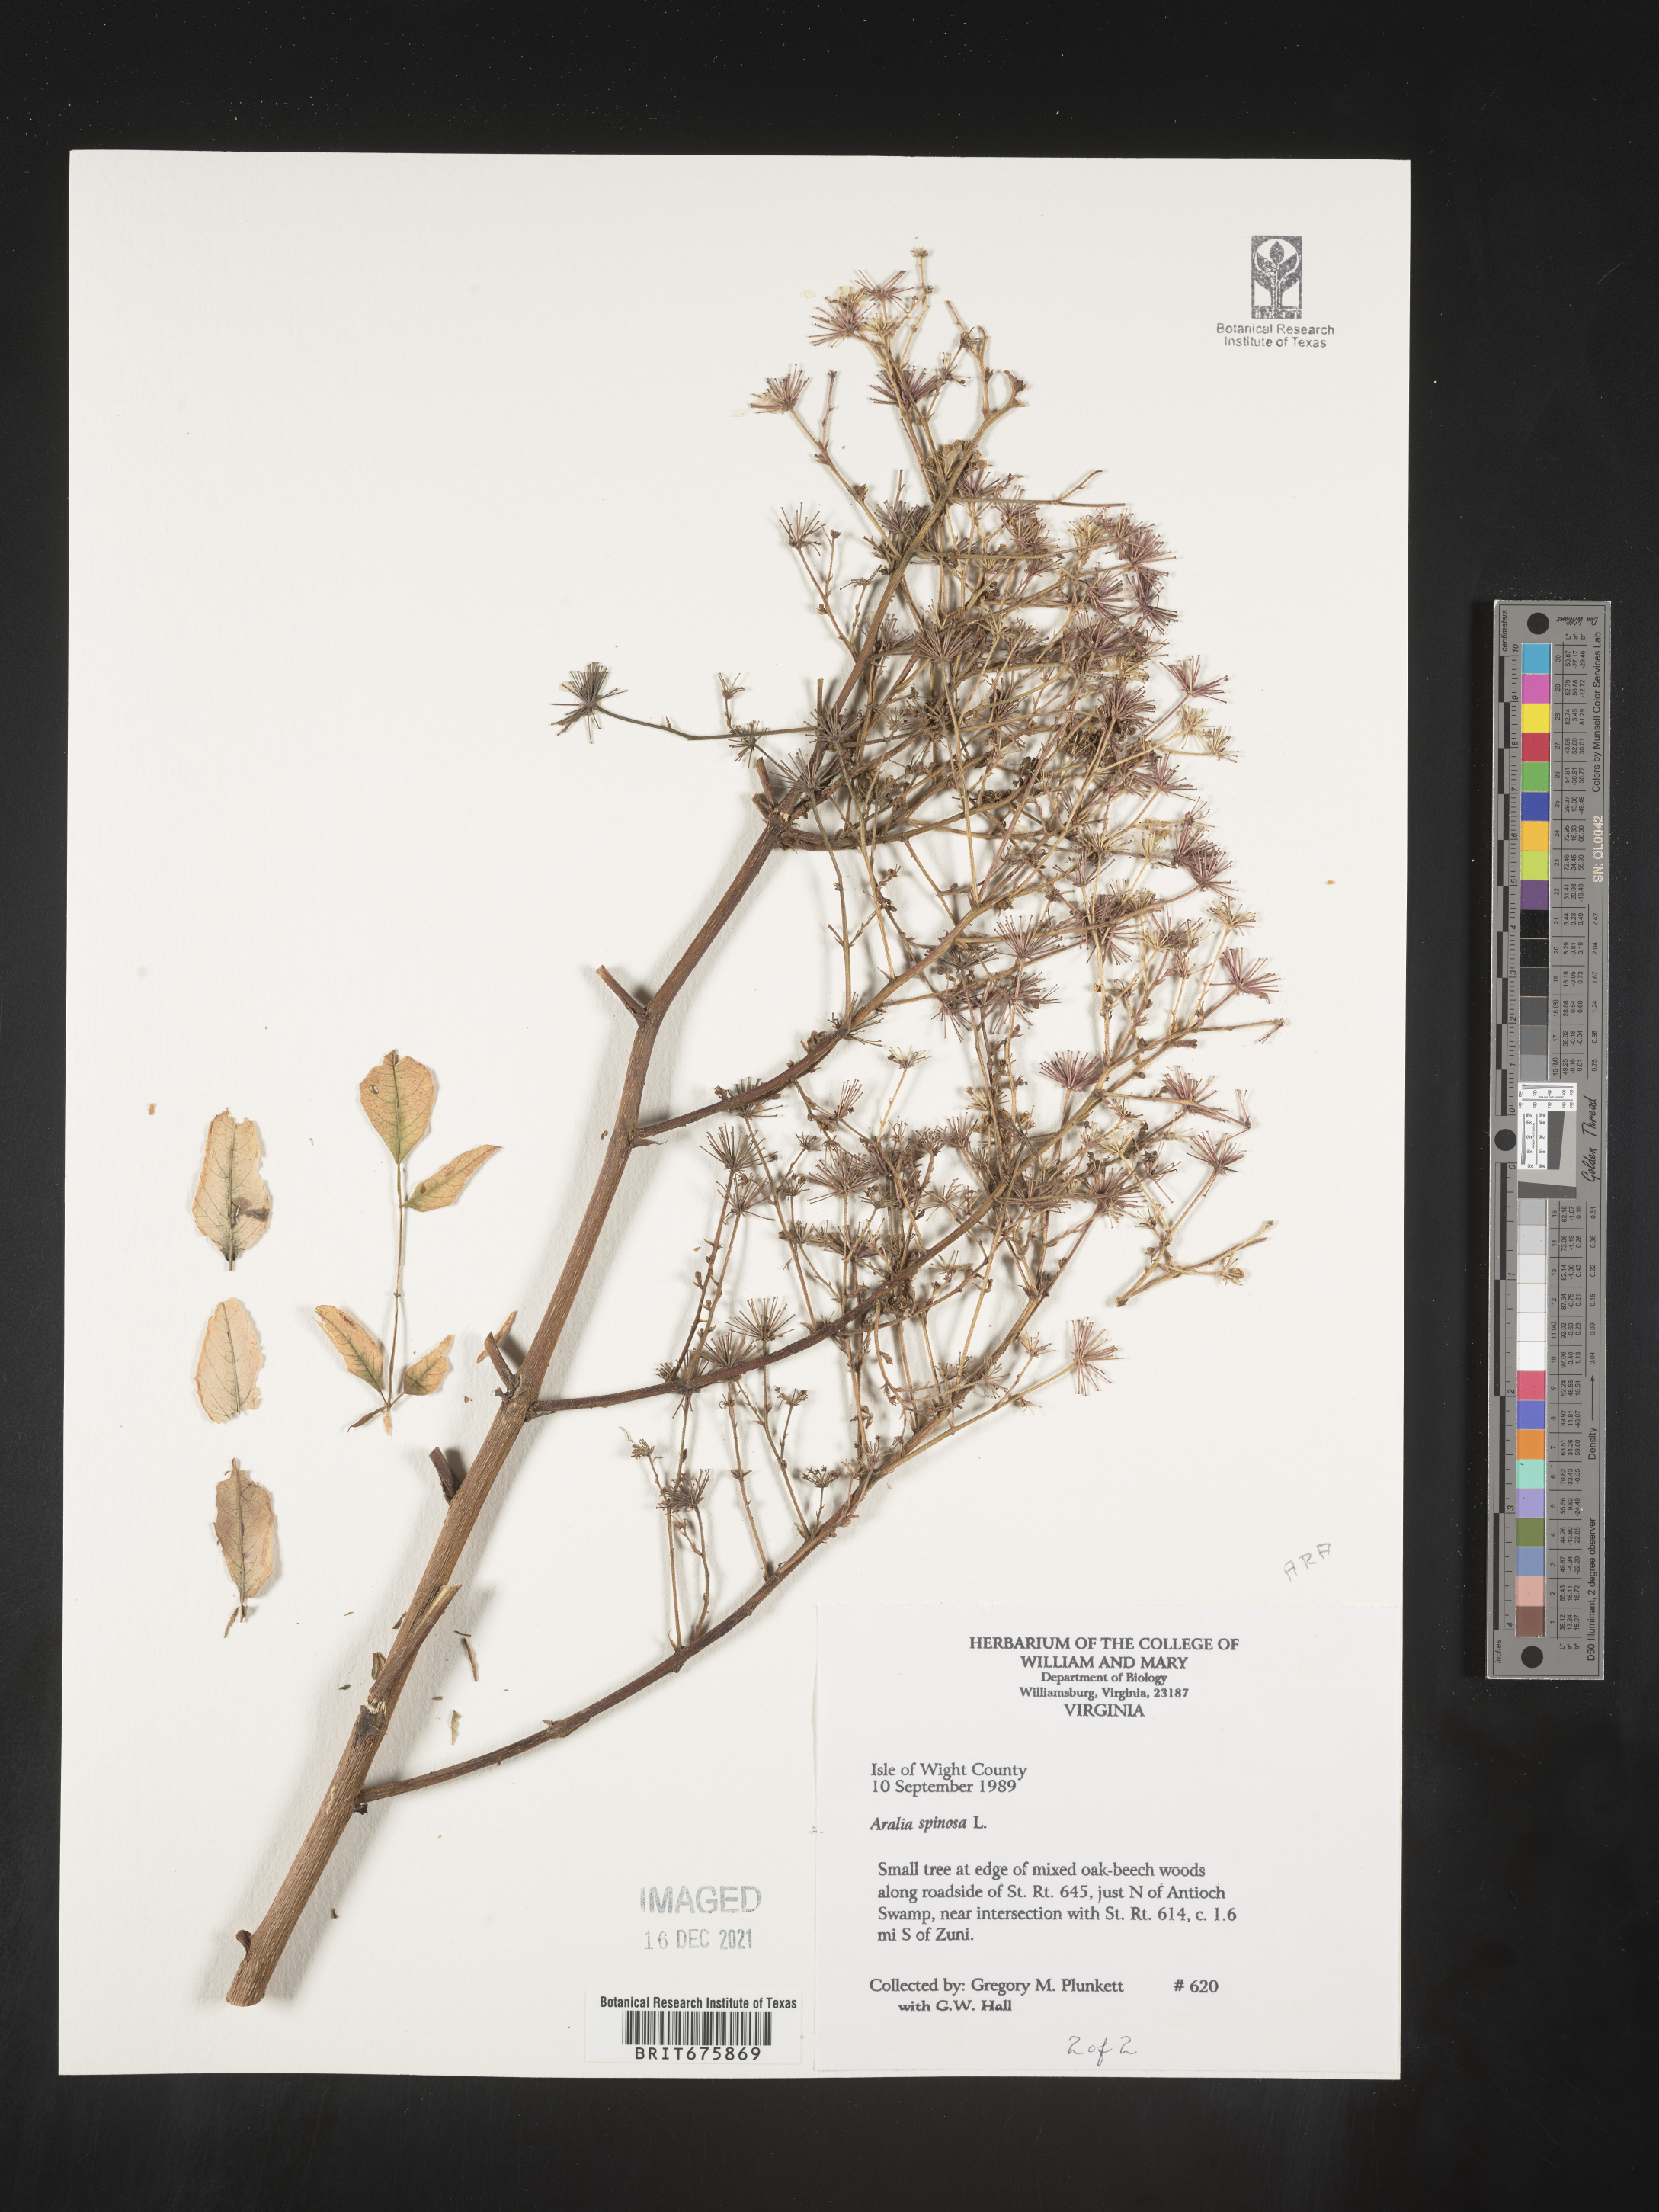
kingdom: Plantae
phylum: Tracheophyta
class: Magnoliopsida
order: Apiales
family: Araliaceae
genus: Aralia
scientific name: Aralia spinosa
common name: Hercules'-club
